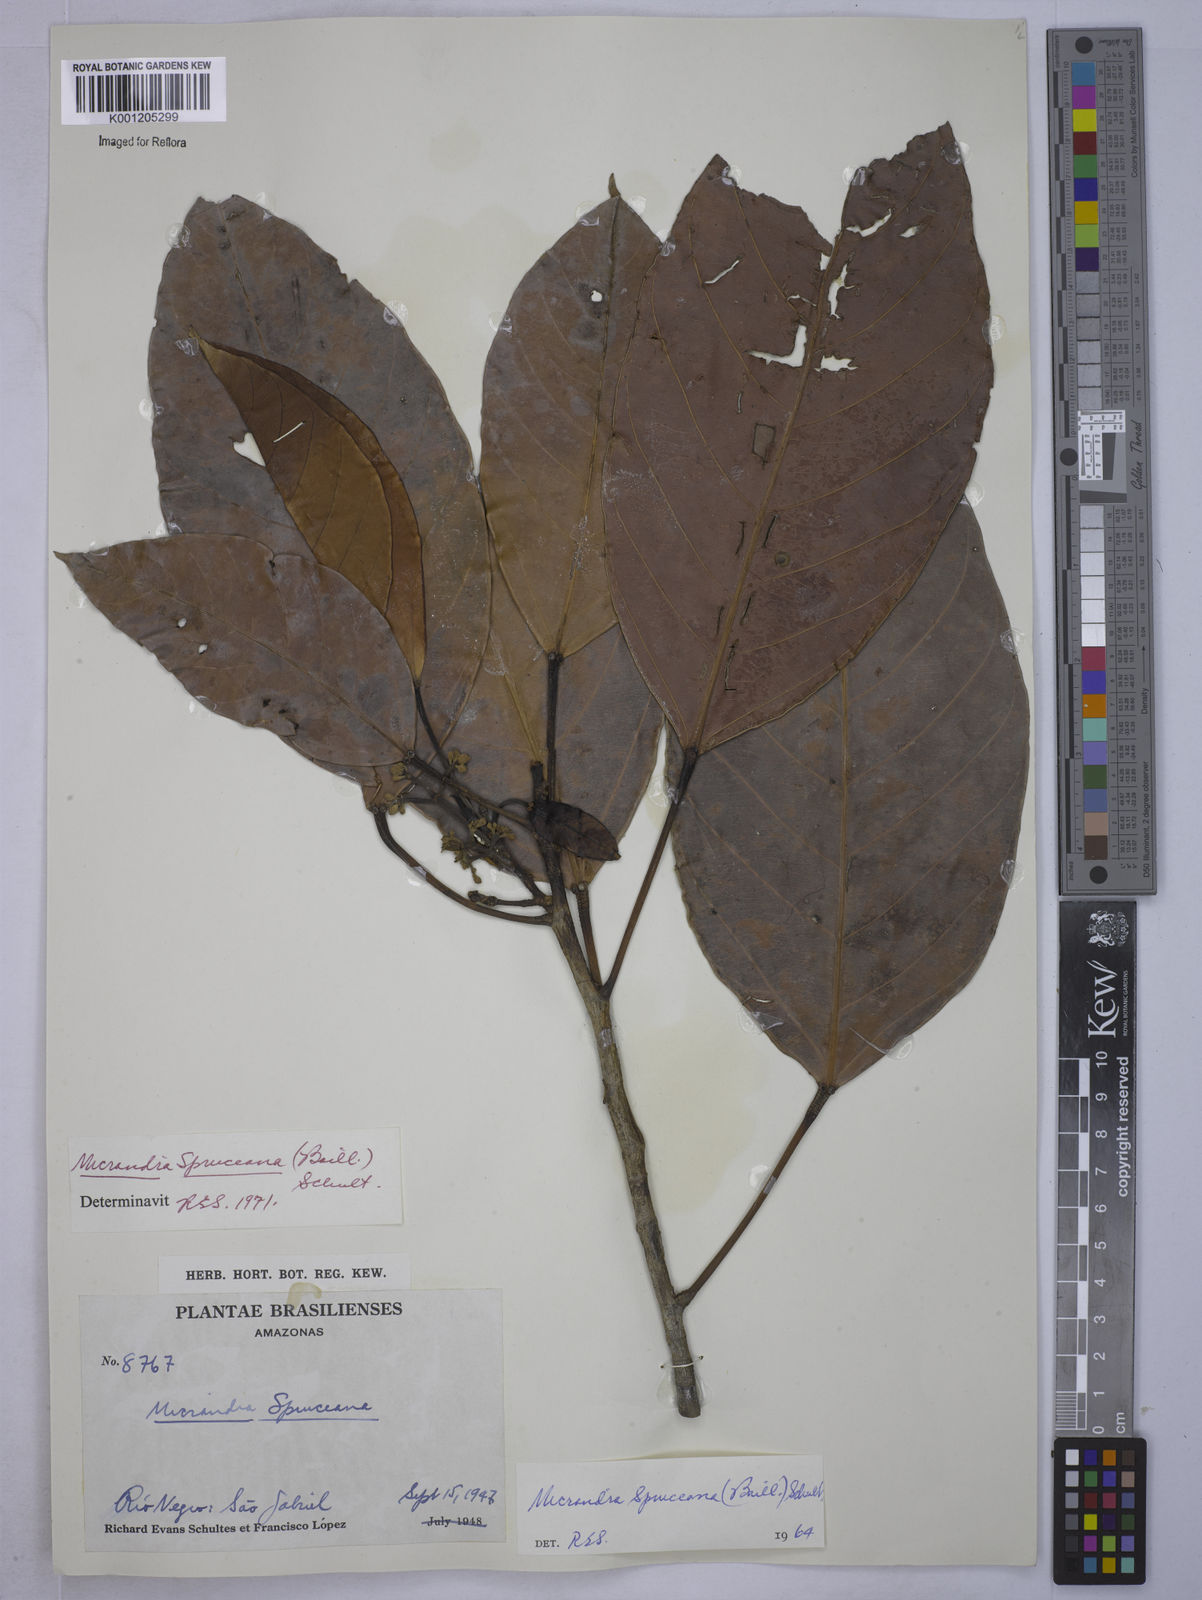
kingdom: Plantae
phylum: Tracheophyta
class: Magnoliopsida
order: Malpighiales
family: Euphorbiaceae
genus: Micrandra
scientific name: Micrandra spruceana
